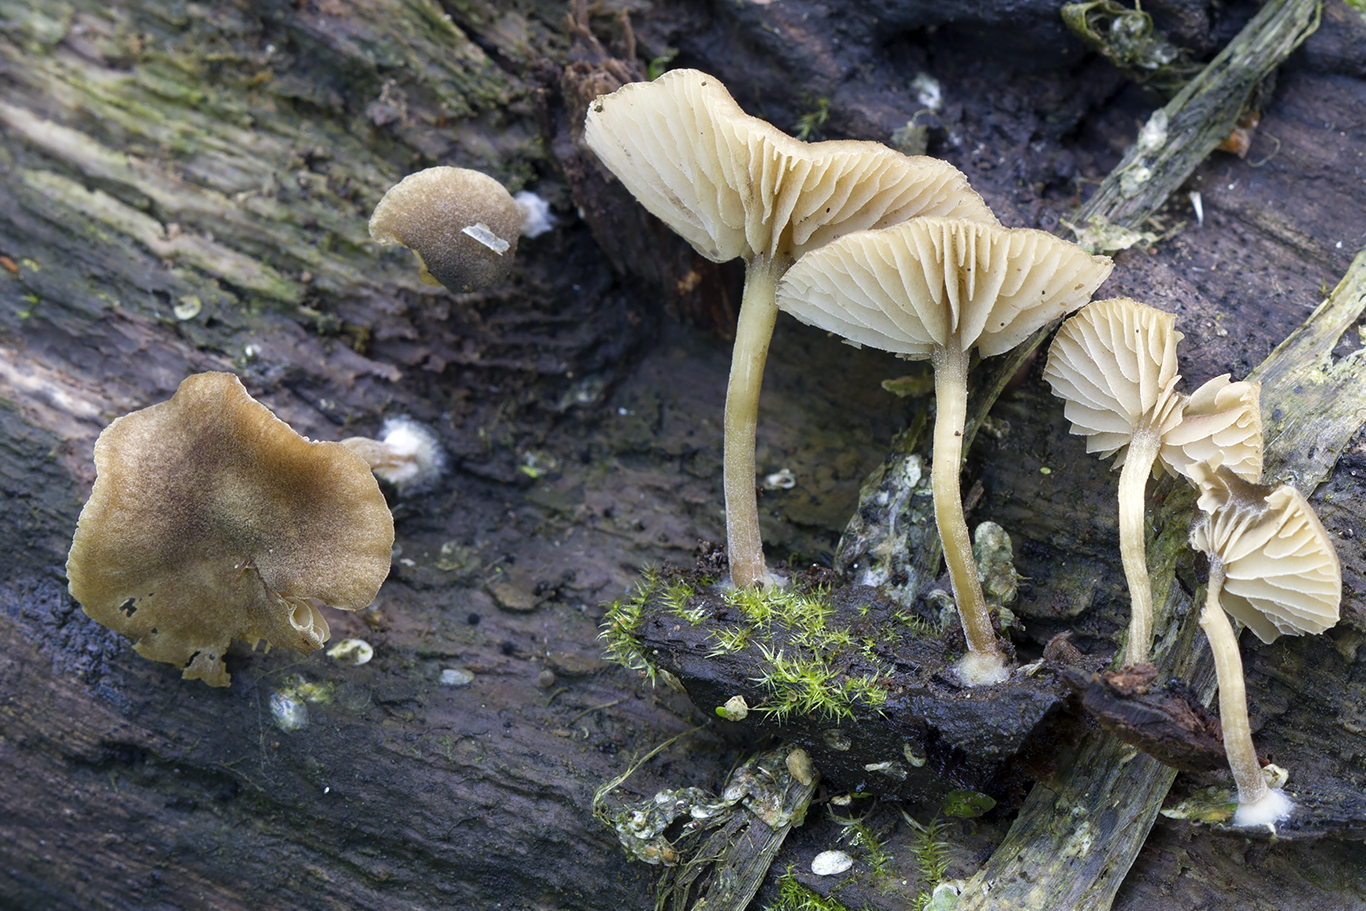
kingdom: Fungi
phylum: Basidiomycota
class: Agaricomycetes
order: Agaricales
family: Crepidotaceae
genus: Simocybe
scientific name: Simocybe
